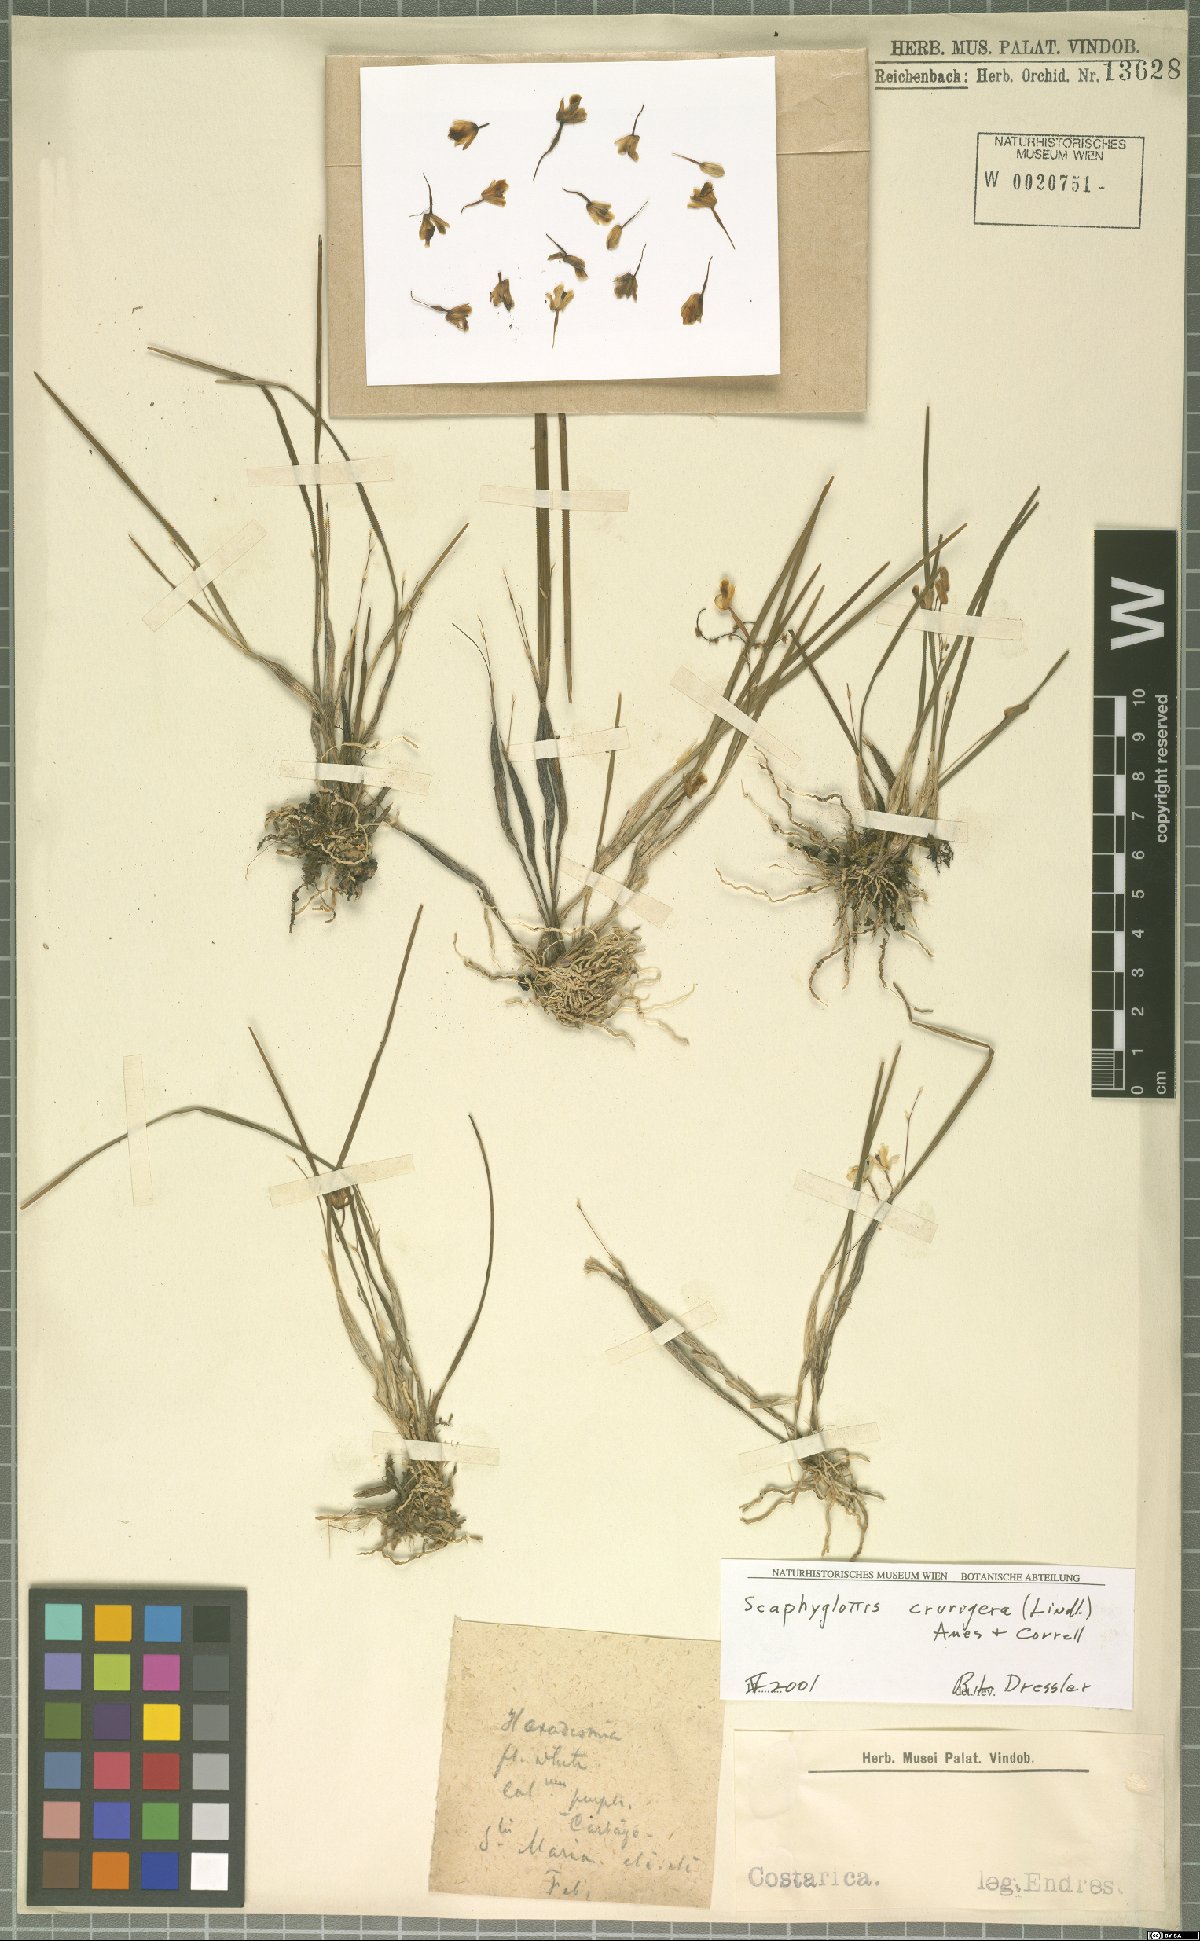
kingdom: Plantae
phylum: Tracheophyta
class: Liliopsida
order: Asparagales
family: Orchidaceae
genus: Scaphyglottis
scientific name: Scaphyglottis crurigera
